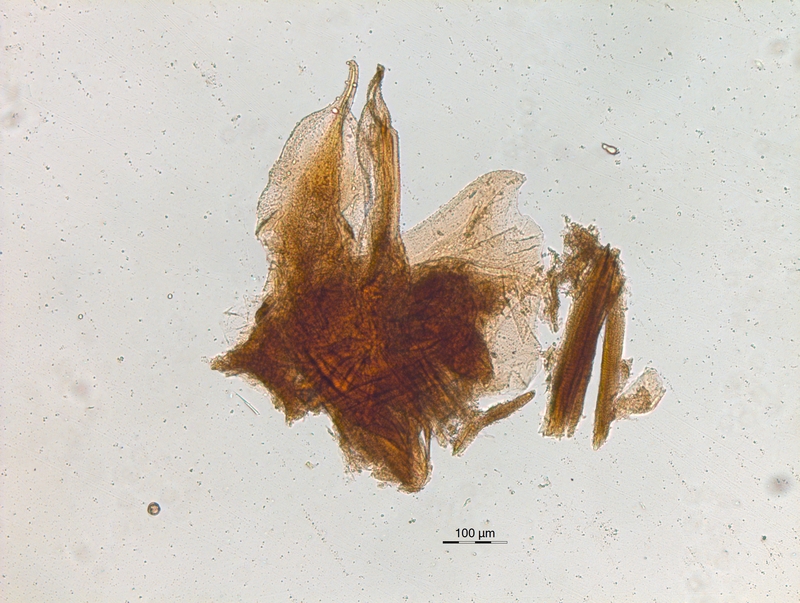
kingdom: Animalia
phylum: Arthropoda
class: Diplopoda
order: Chordeumatida
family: Chordeumatidae
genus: Melogona
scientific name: Melogona voigtii
